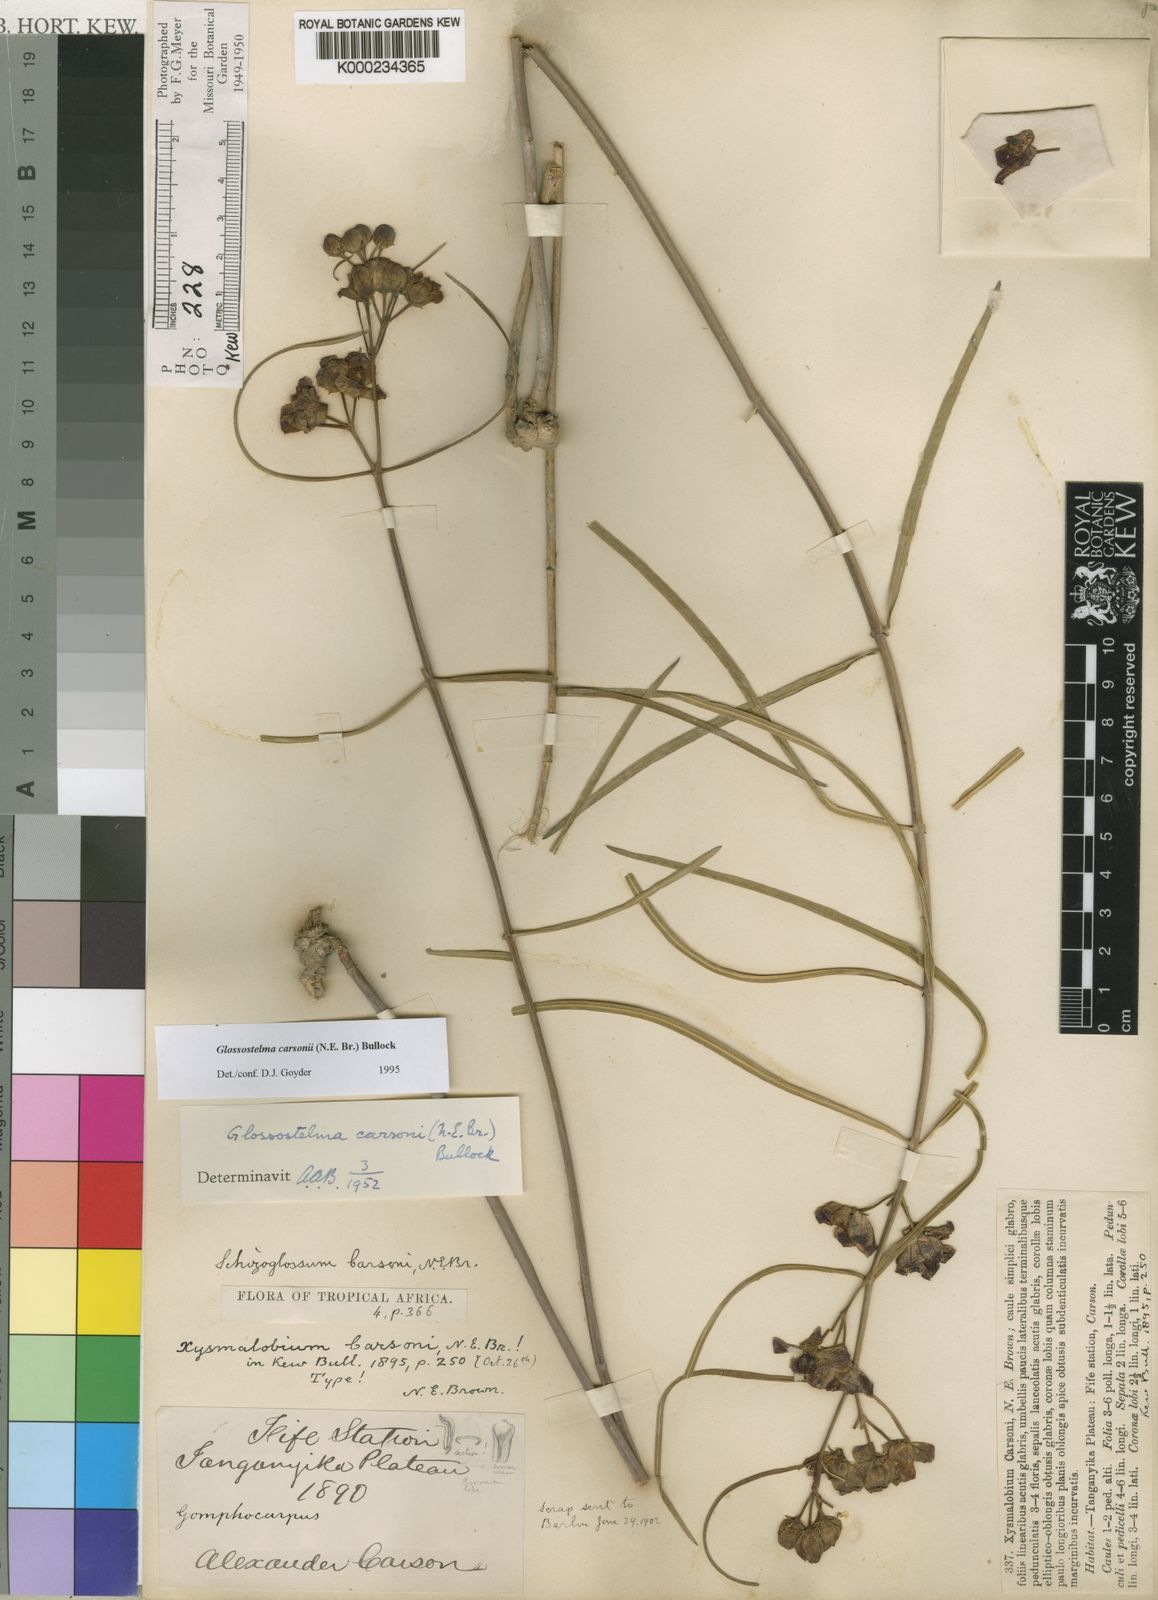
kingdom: Plantae
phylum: Tracheophyta
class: Magnoliopsida
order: Gentianales
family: Apocynaceae
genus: Glossostelma
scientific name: Glossostelma carsonii
